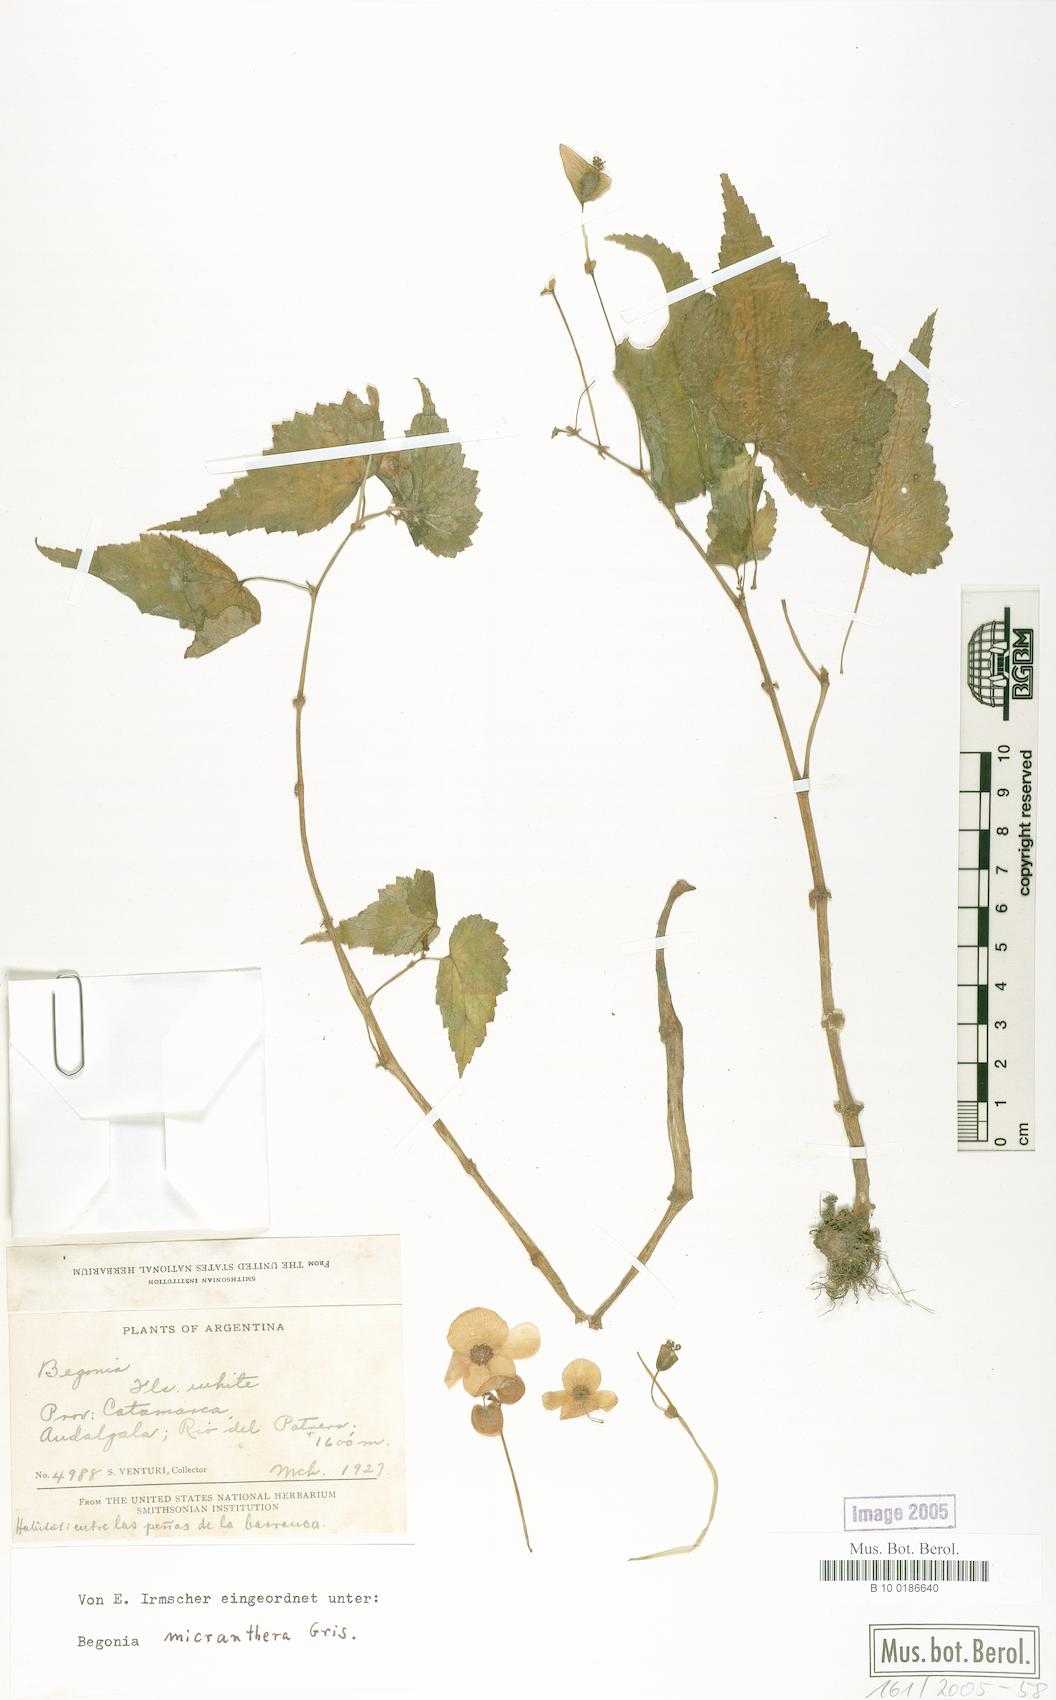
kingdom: Plantae
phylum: Tracheophyta
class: Magnoliopsida
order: Cucurbitales
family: Begoniaceae
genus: Begonia
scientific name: Begonia micranthera
